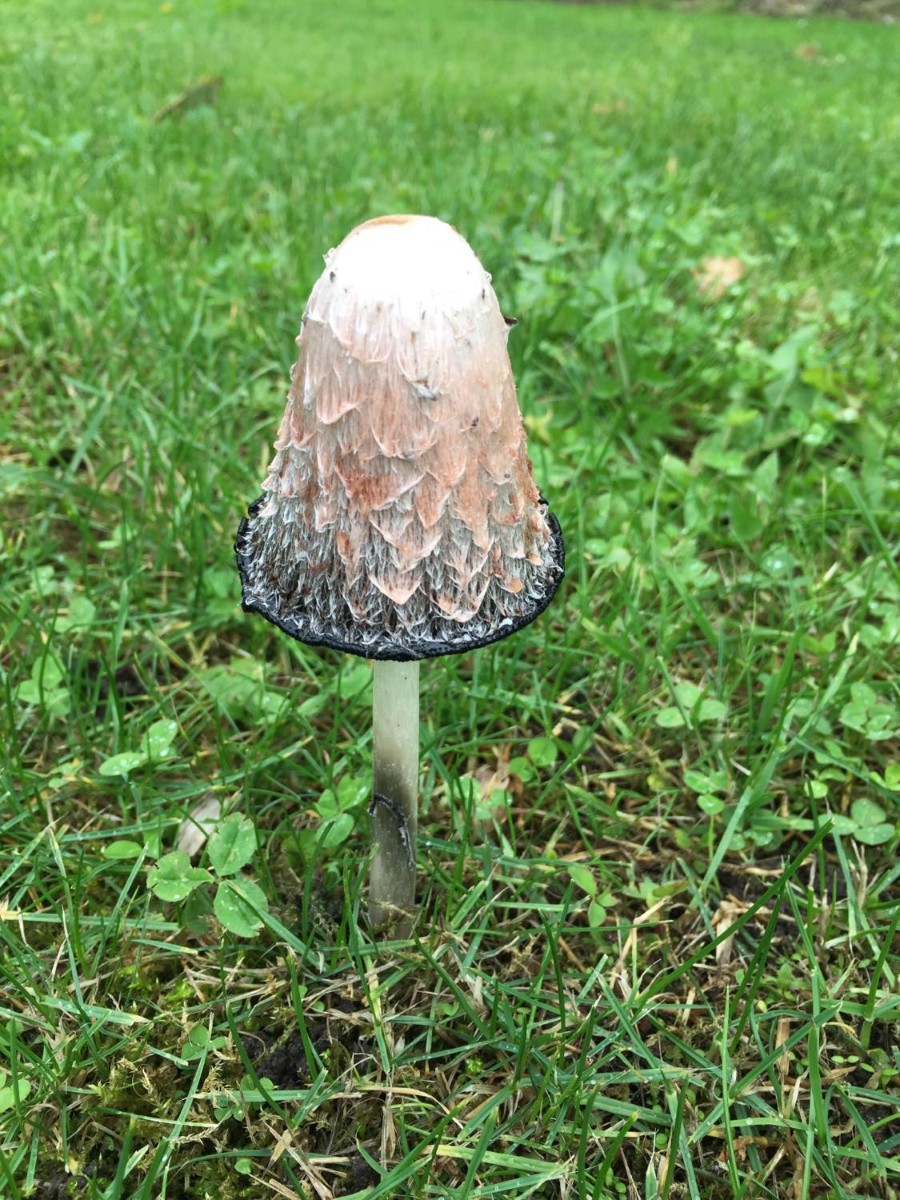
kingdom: Fungi
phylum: Basidiomycota
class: Agaricomycetes
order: Agaricales
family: Agaricaceae
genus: Coprinus
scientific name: Coprinus comatus
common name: stor parykhat
